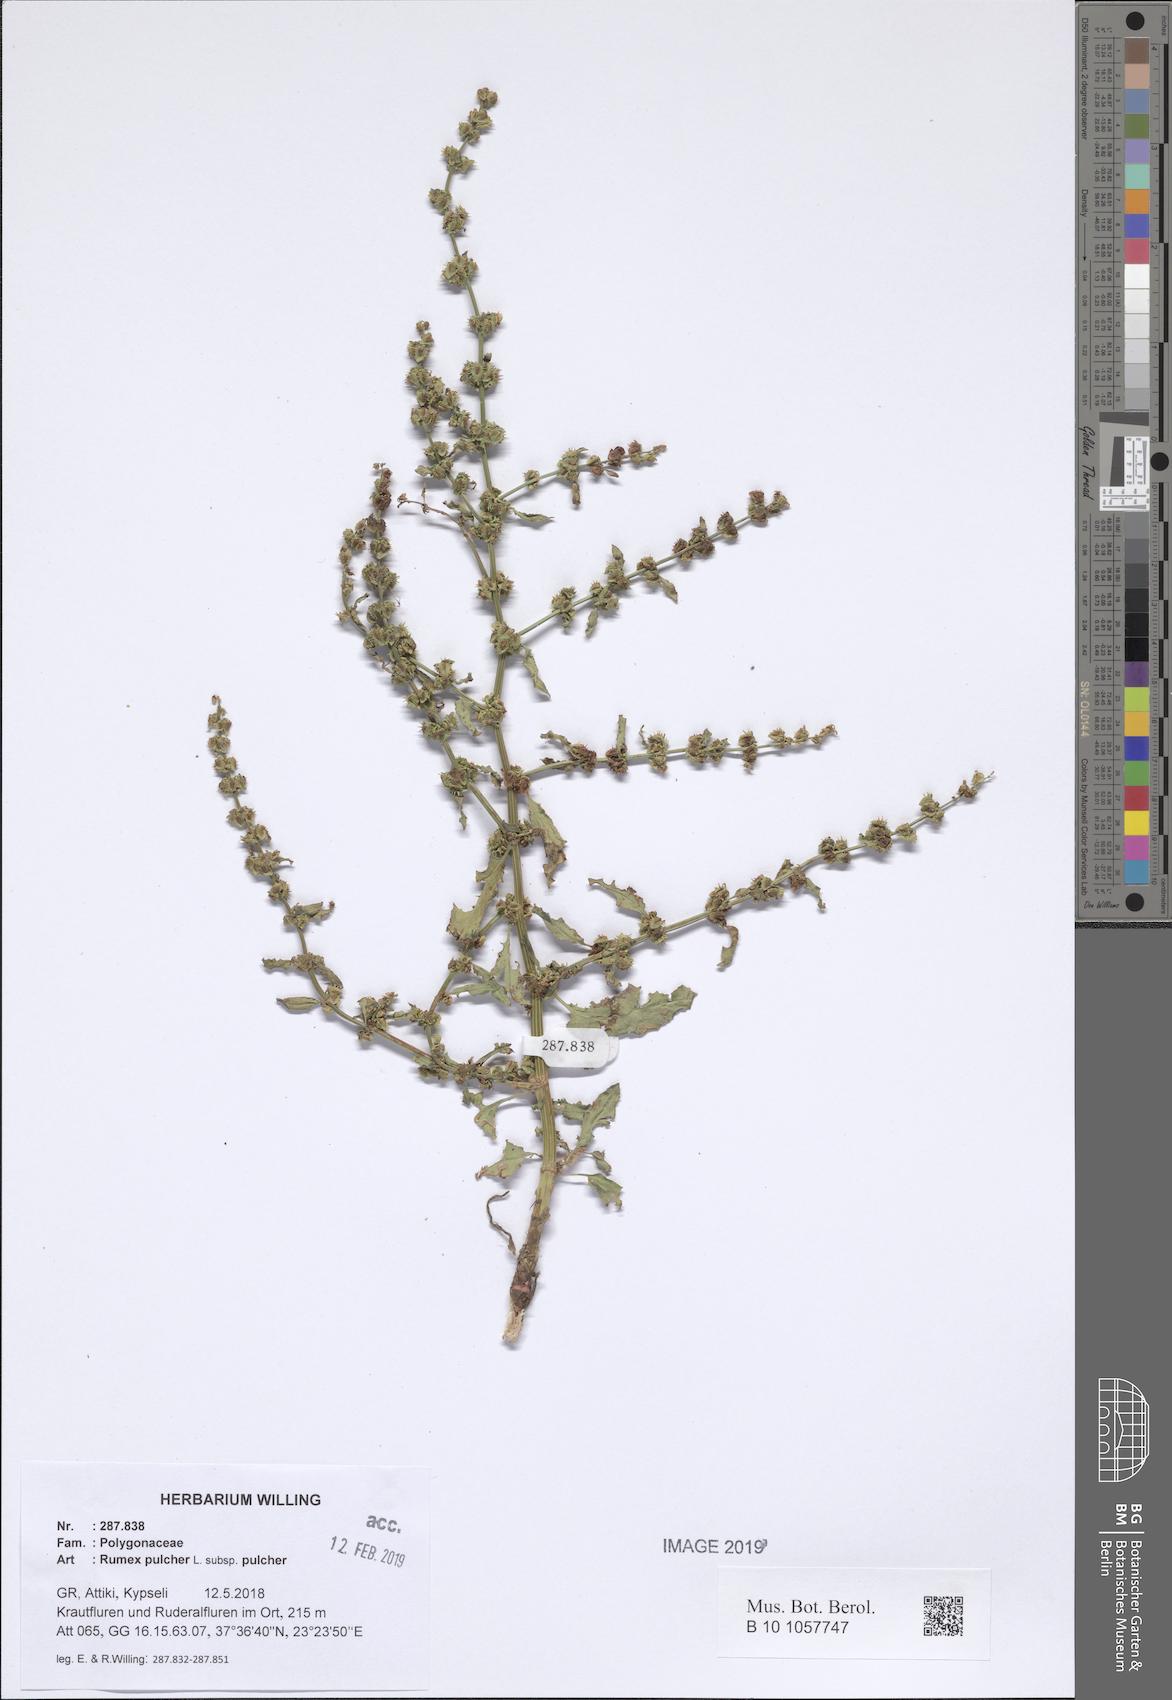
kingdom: Plantae
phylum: Tracheophyta
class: Magnoliopsida
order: Caryophyllales
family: Polygonaceae
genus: Rumex
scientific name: Rumex pulcher
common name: Fiddle dock
